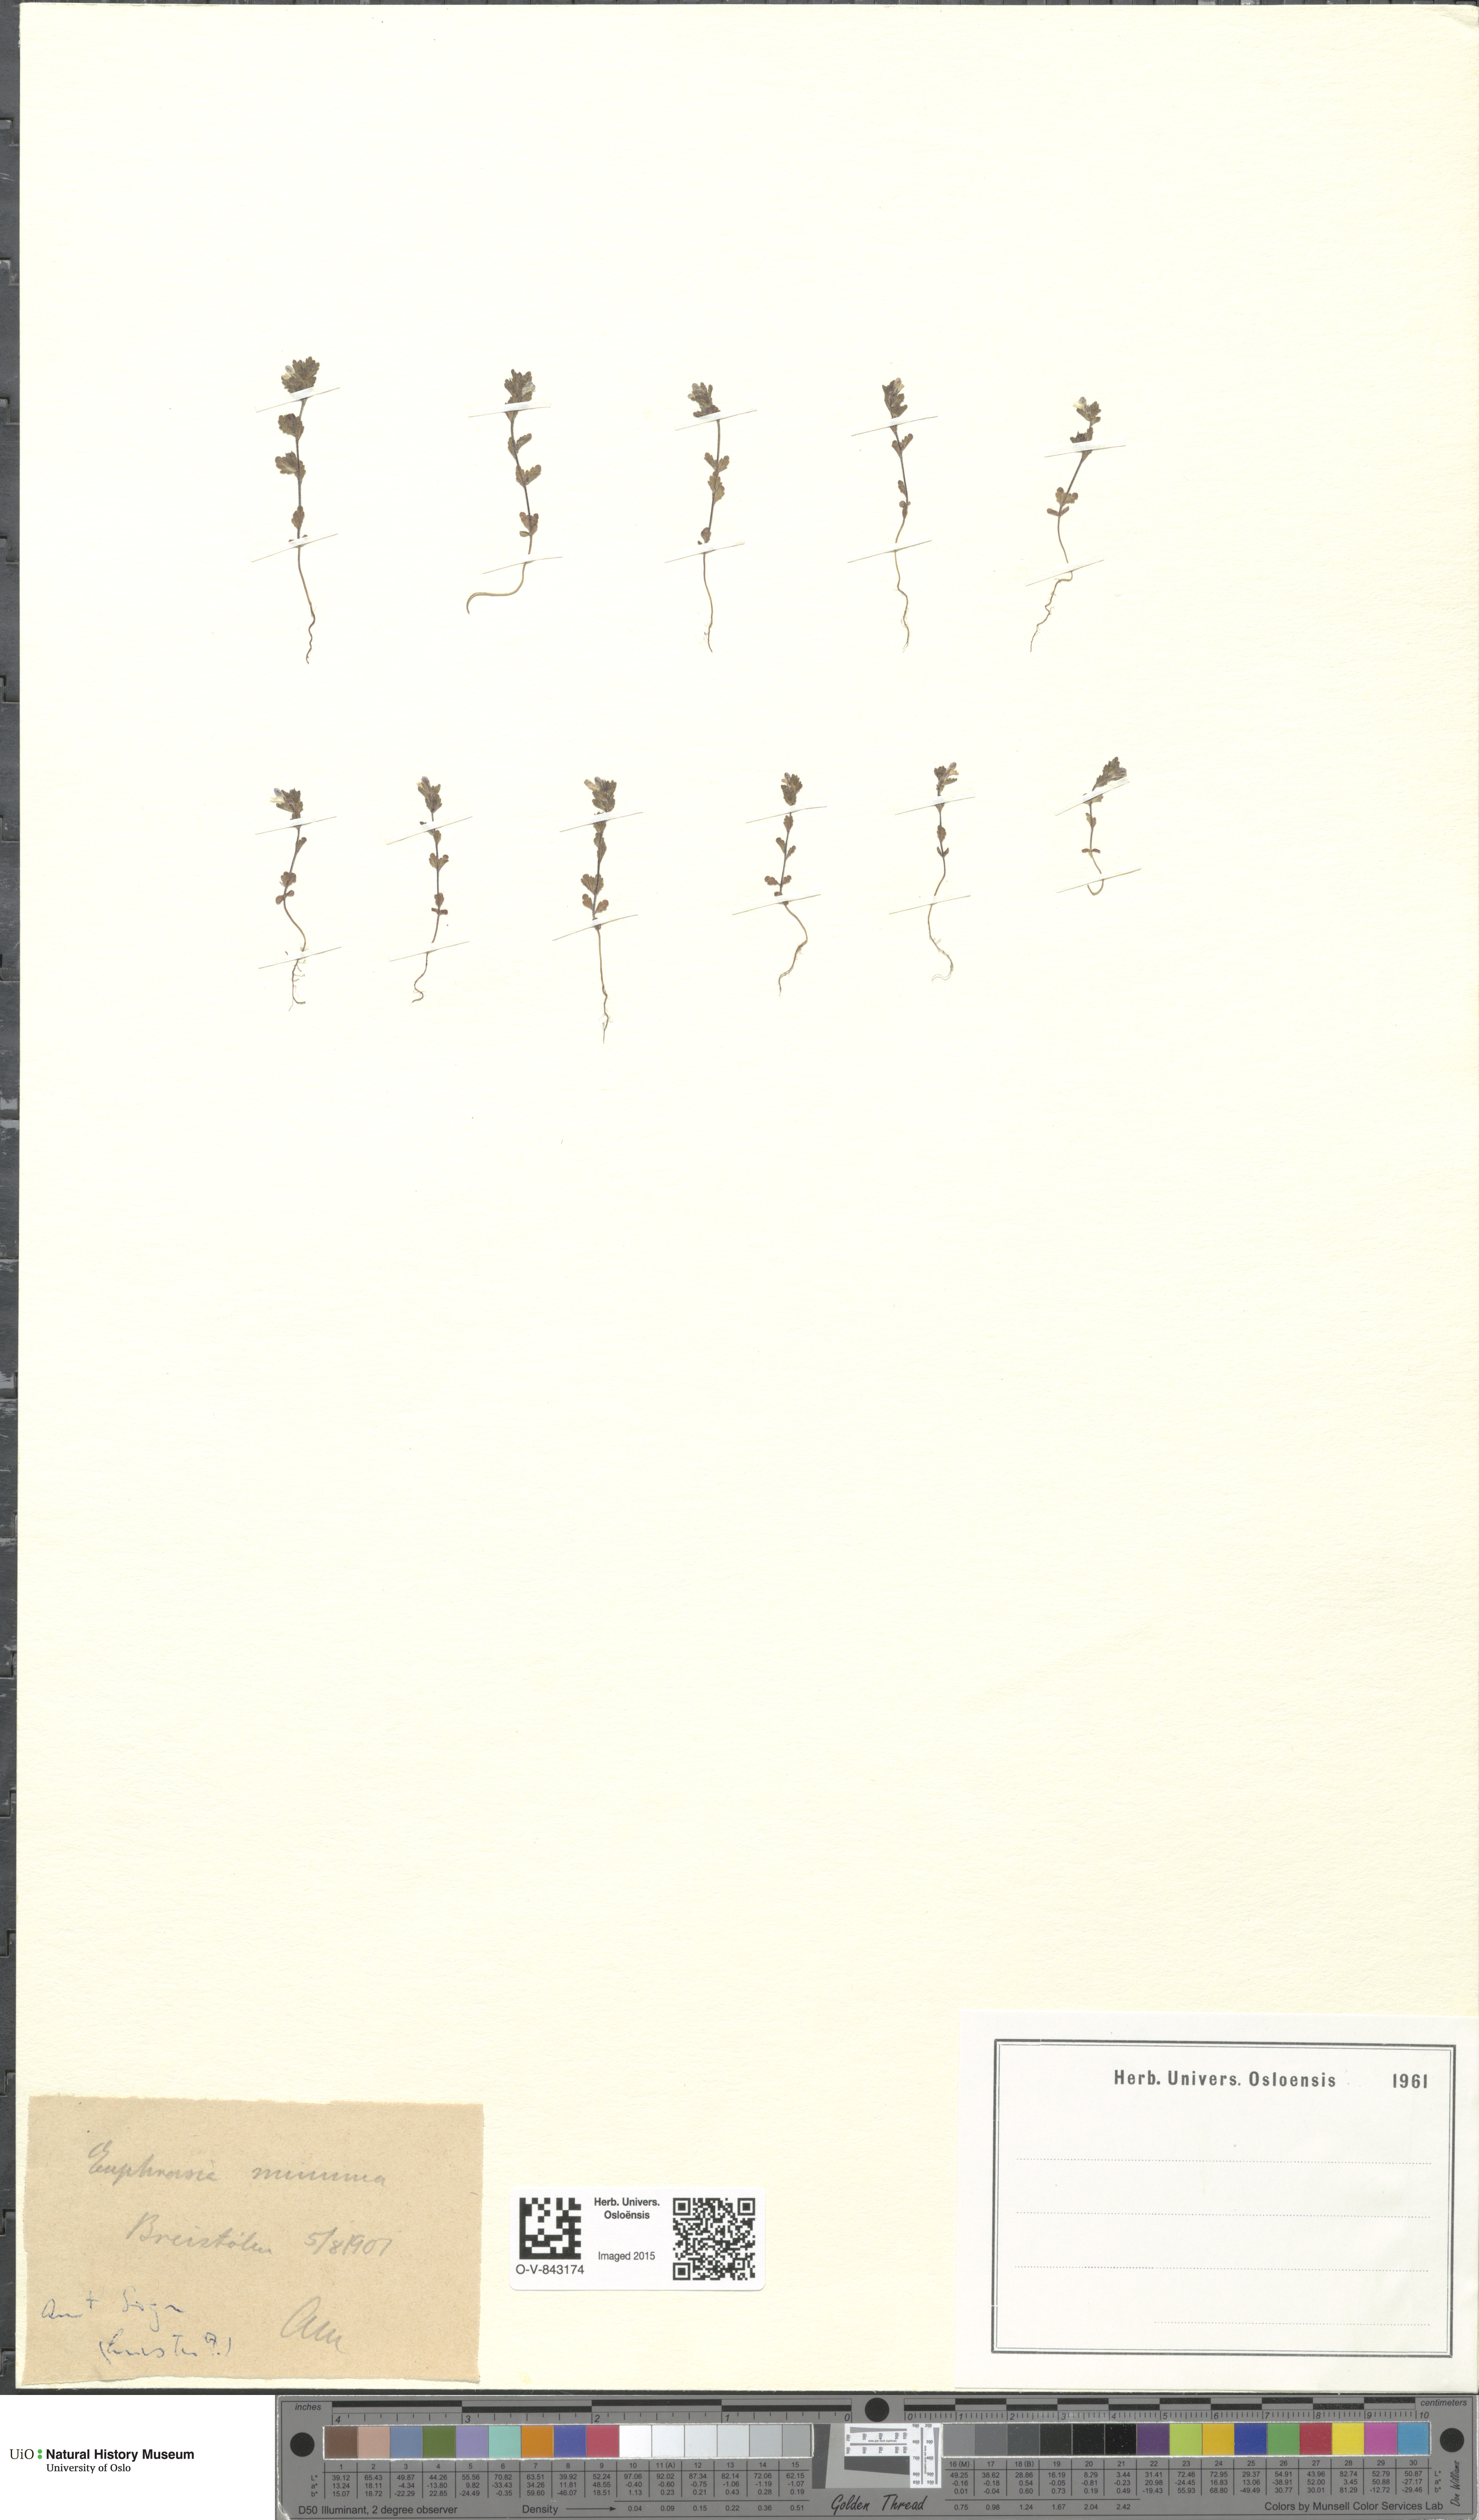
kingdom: Plantae
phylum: Tracheophyta
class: Magnoliopsida
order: Lamiales
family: Orobanchaceae
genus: Euphrasia
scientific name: Euphrasia wettsteinii
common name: Wettstein's eyebright
